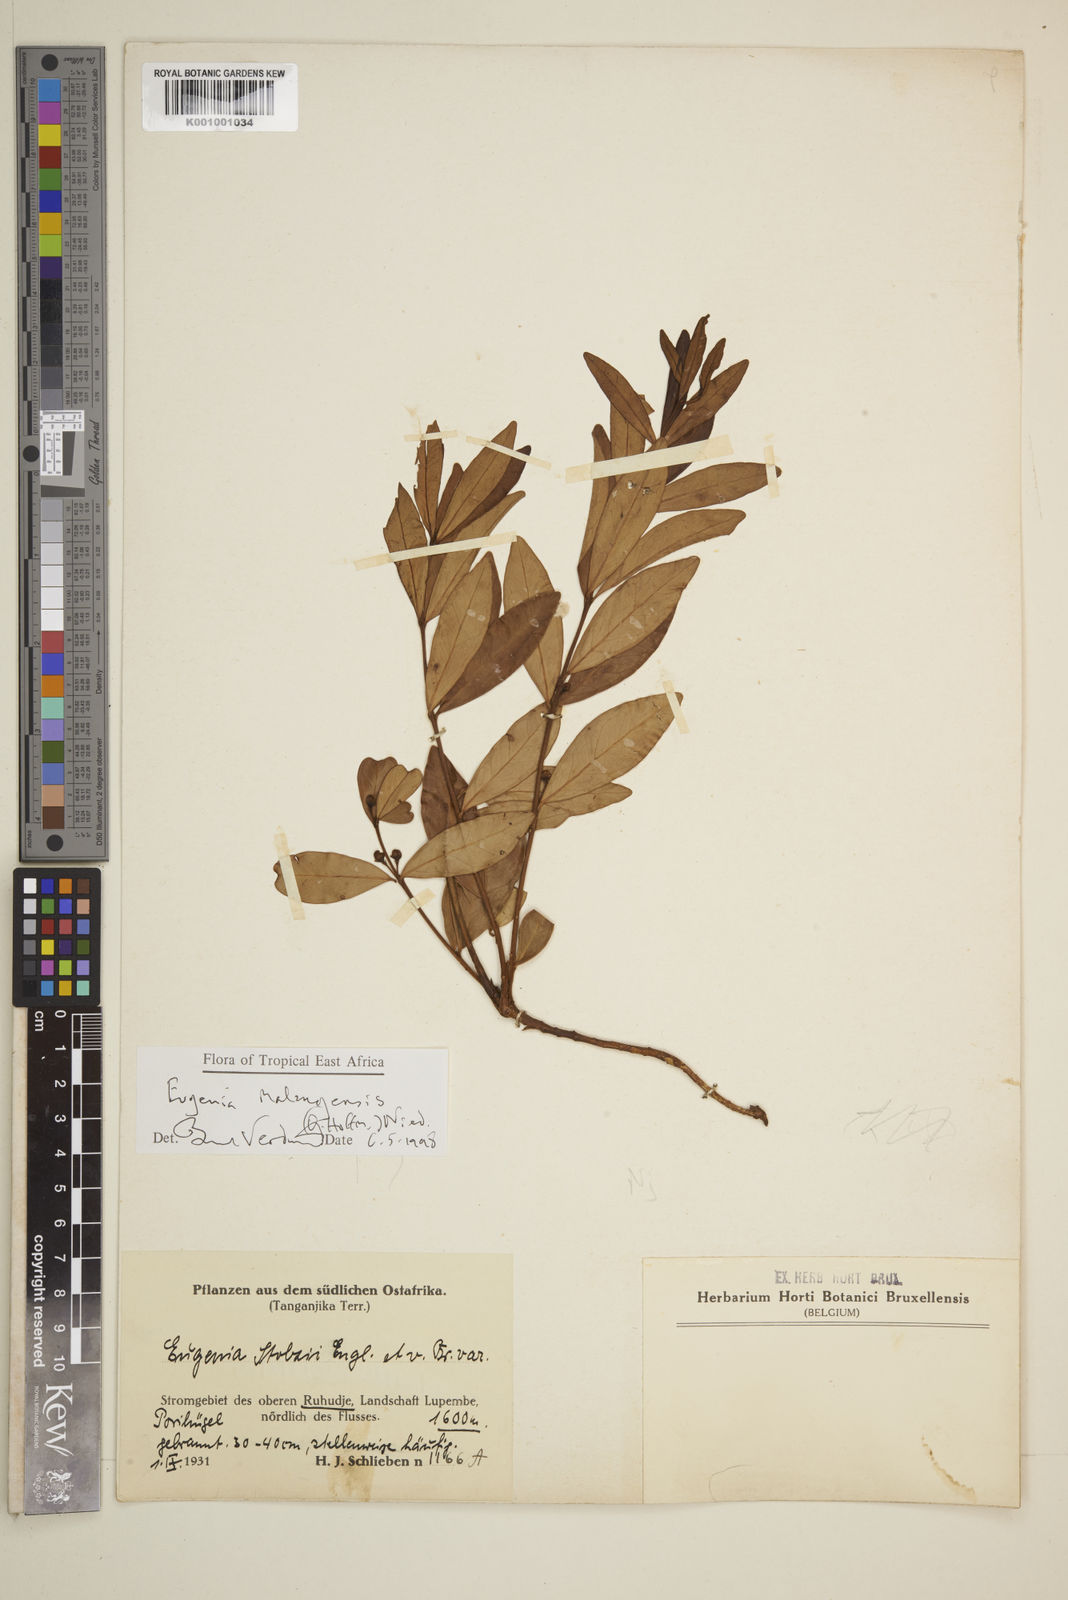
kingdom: Plantae
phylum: Tracheophyta
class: Magnoliopsida
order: Myrtales
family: Myrtaceae
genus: Eugenia
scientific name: Eugenia malangensis
